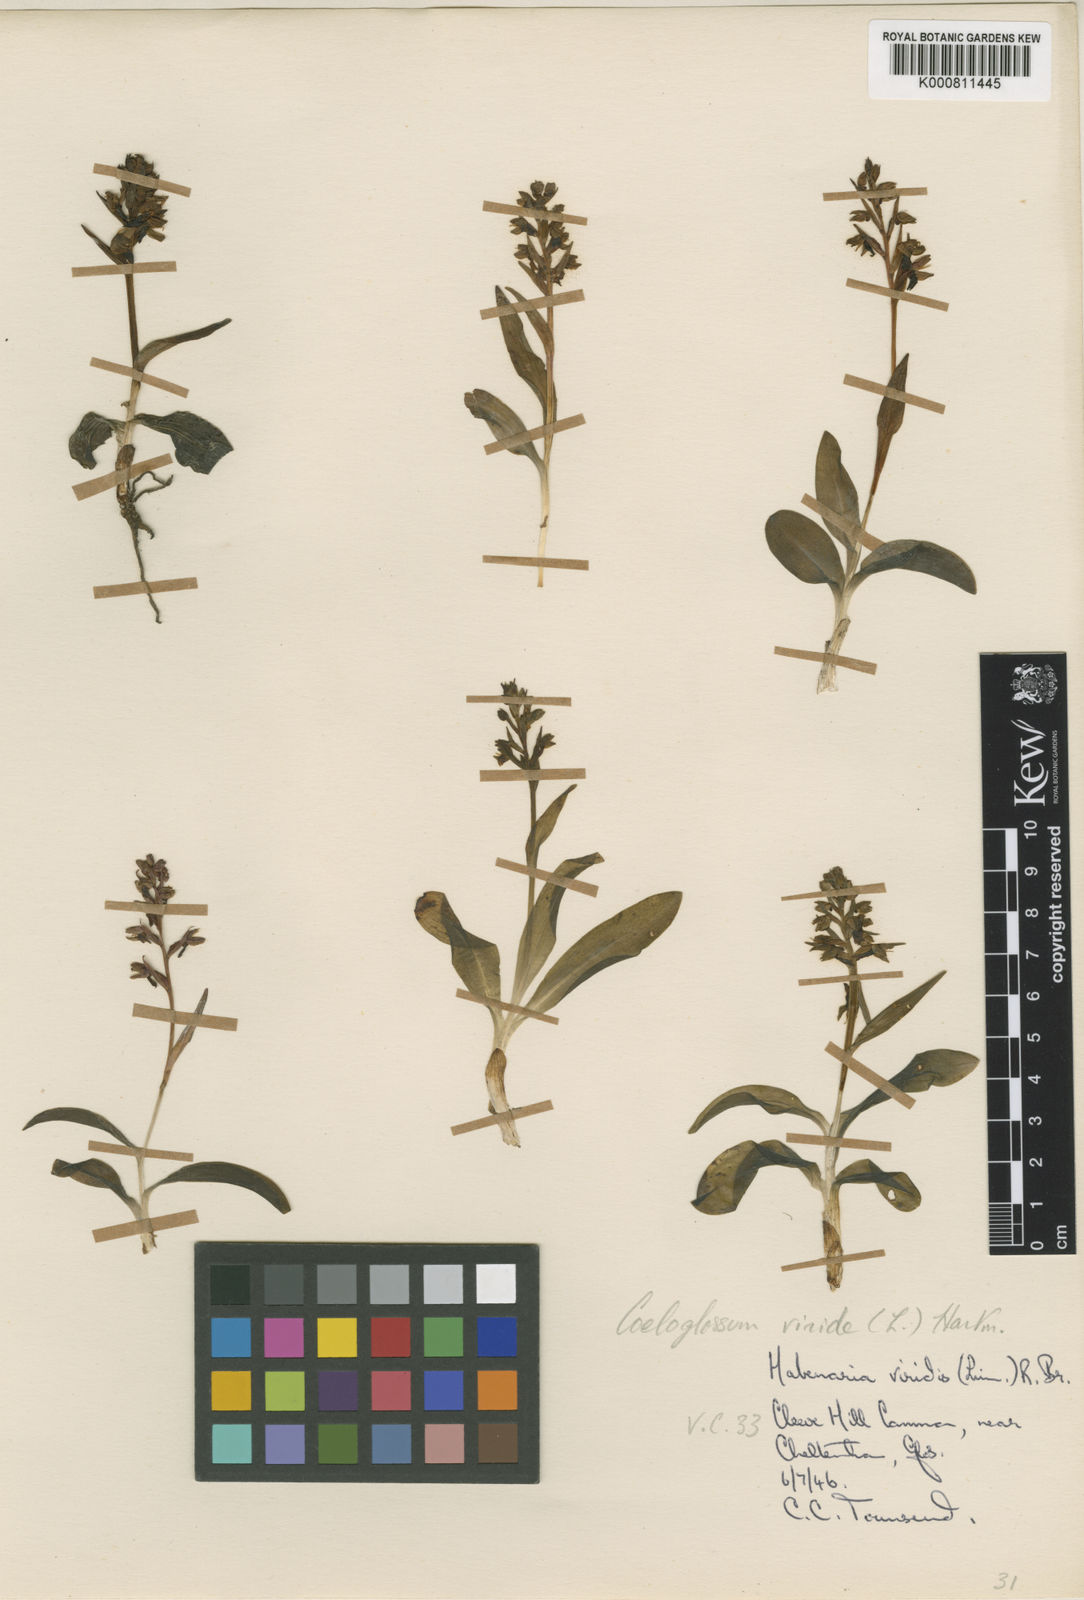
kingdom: Plantae
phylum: Tracheophyta
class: Liliopsida
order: Asparagales
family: Orchidaceae
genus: Dactylorhiza
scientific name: Dactylorhiza viridis
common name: Longbract frog orchid
